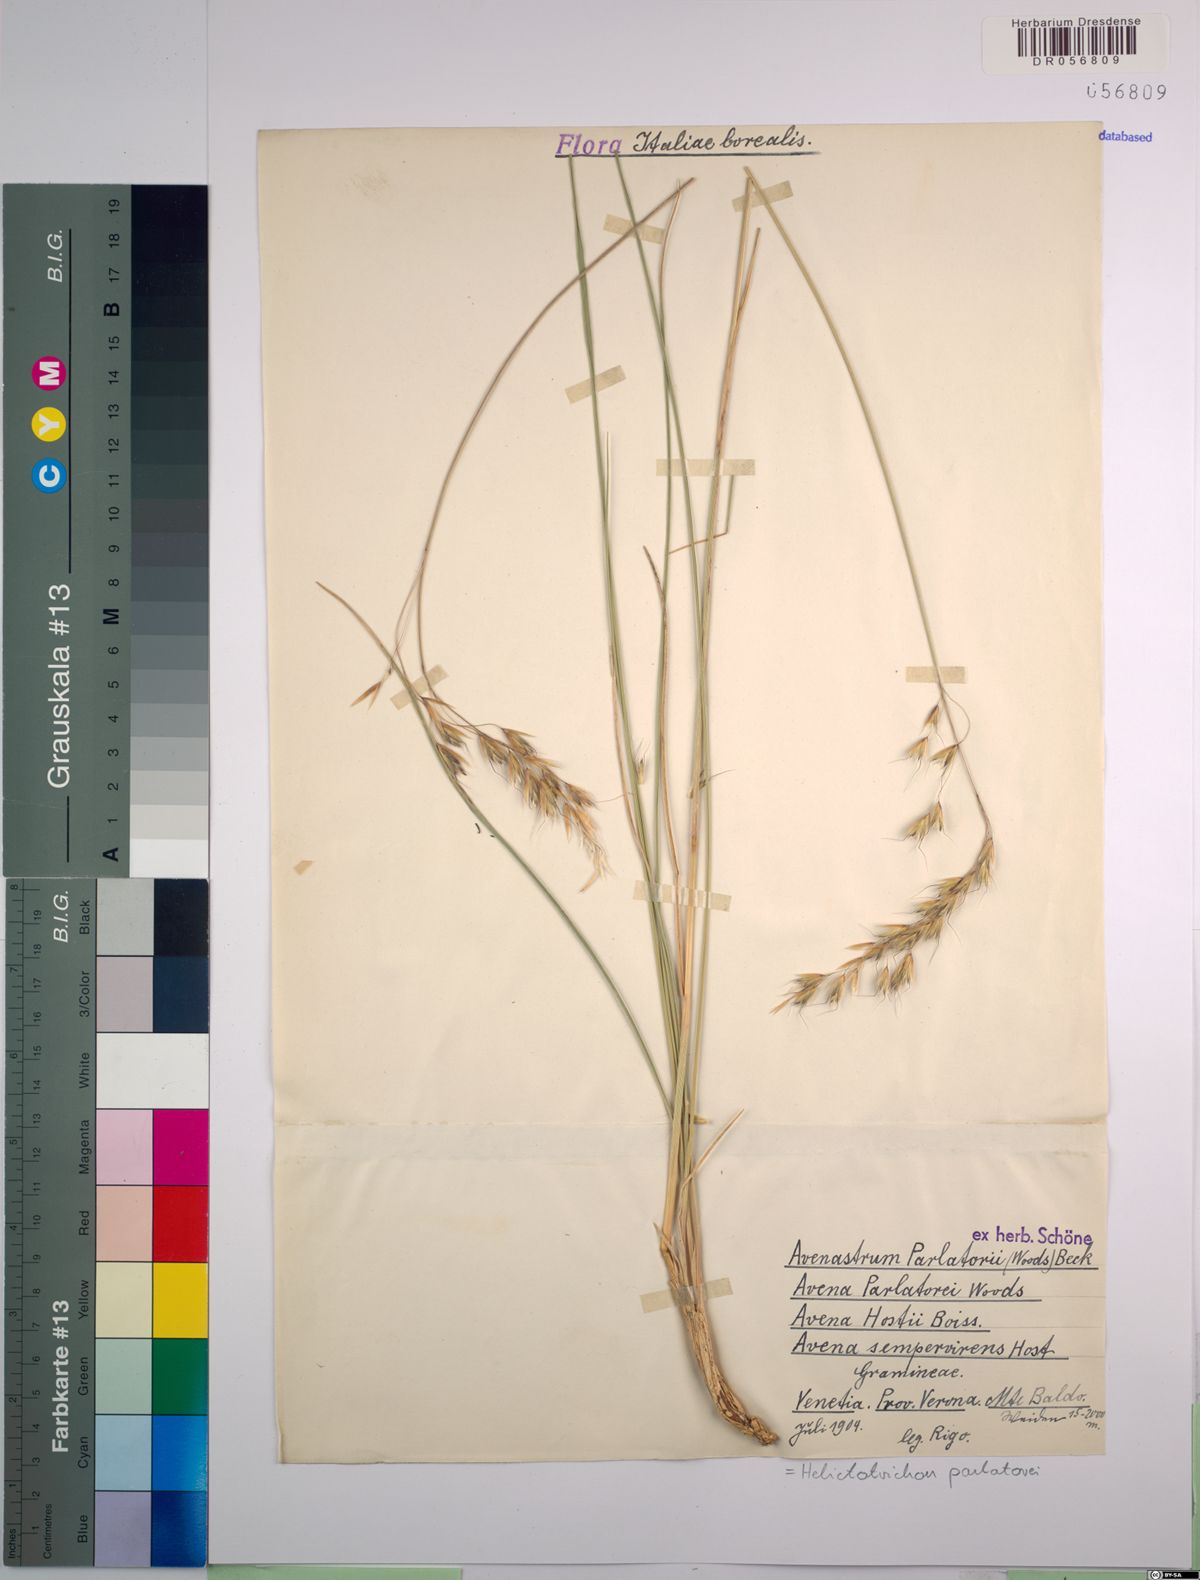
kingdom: Plantae
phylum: Tracheophyta
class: Liliopsida
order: Poales
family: Poaceae
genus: Helictotrichon
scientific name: Helictotrichon parlatorei
